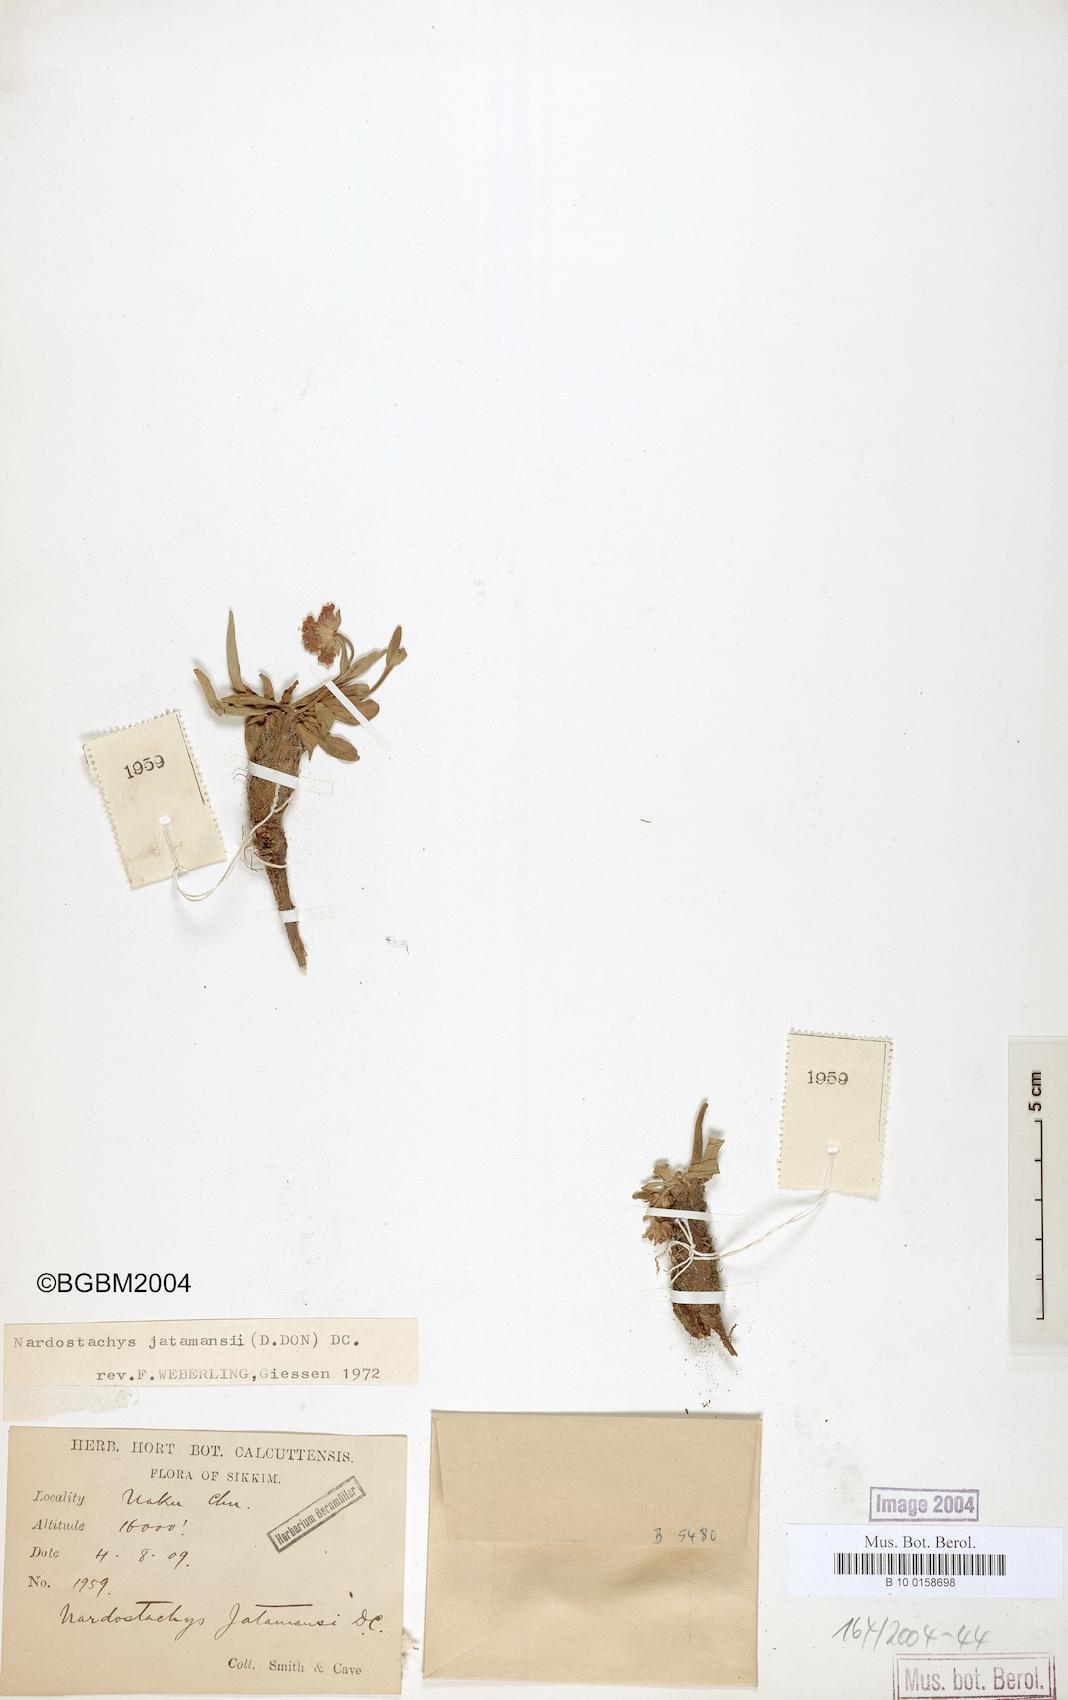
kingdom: Plantae
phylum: Tracheophyta
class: Magnoliopsida
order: Dipsacales
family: Caprifoliaceae
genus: Nardostachys
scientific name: Nardostachys jatamansi
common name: Indian nard
